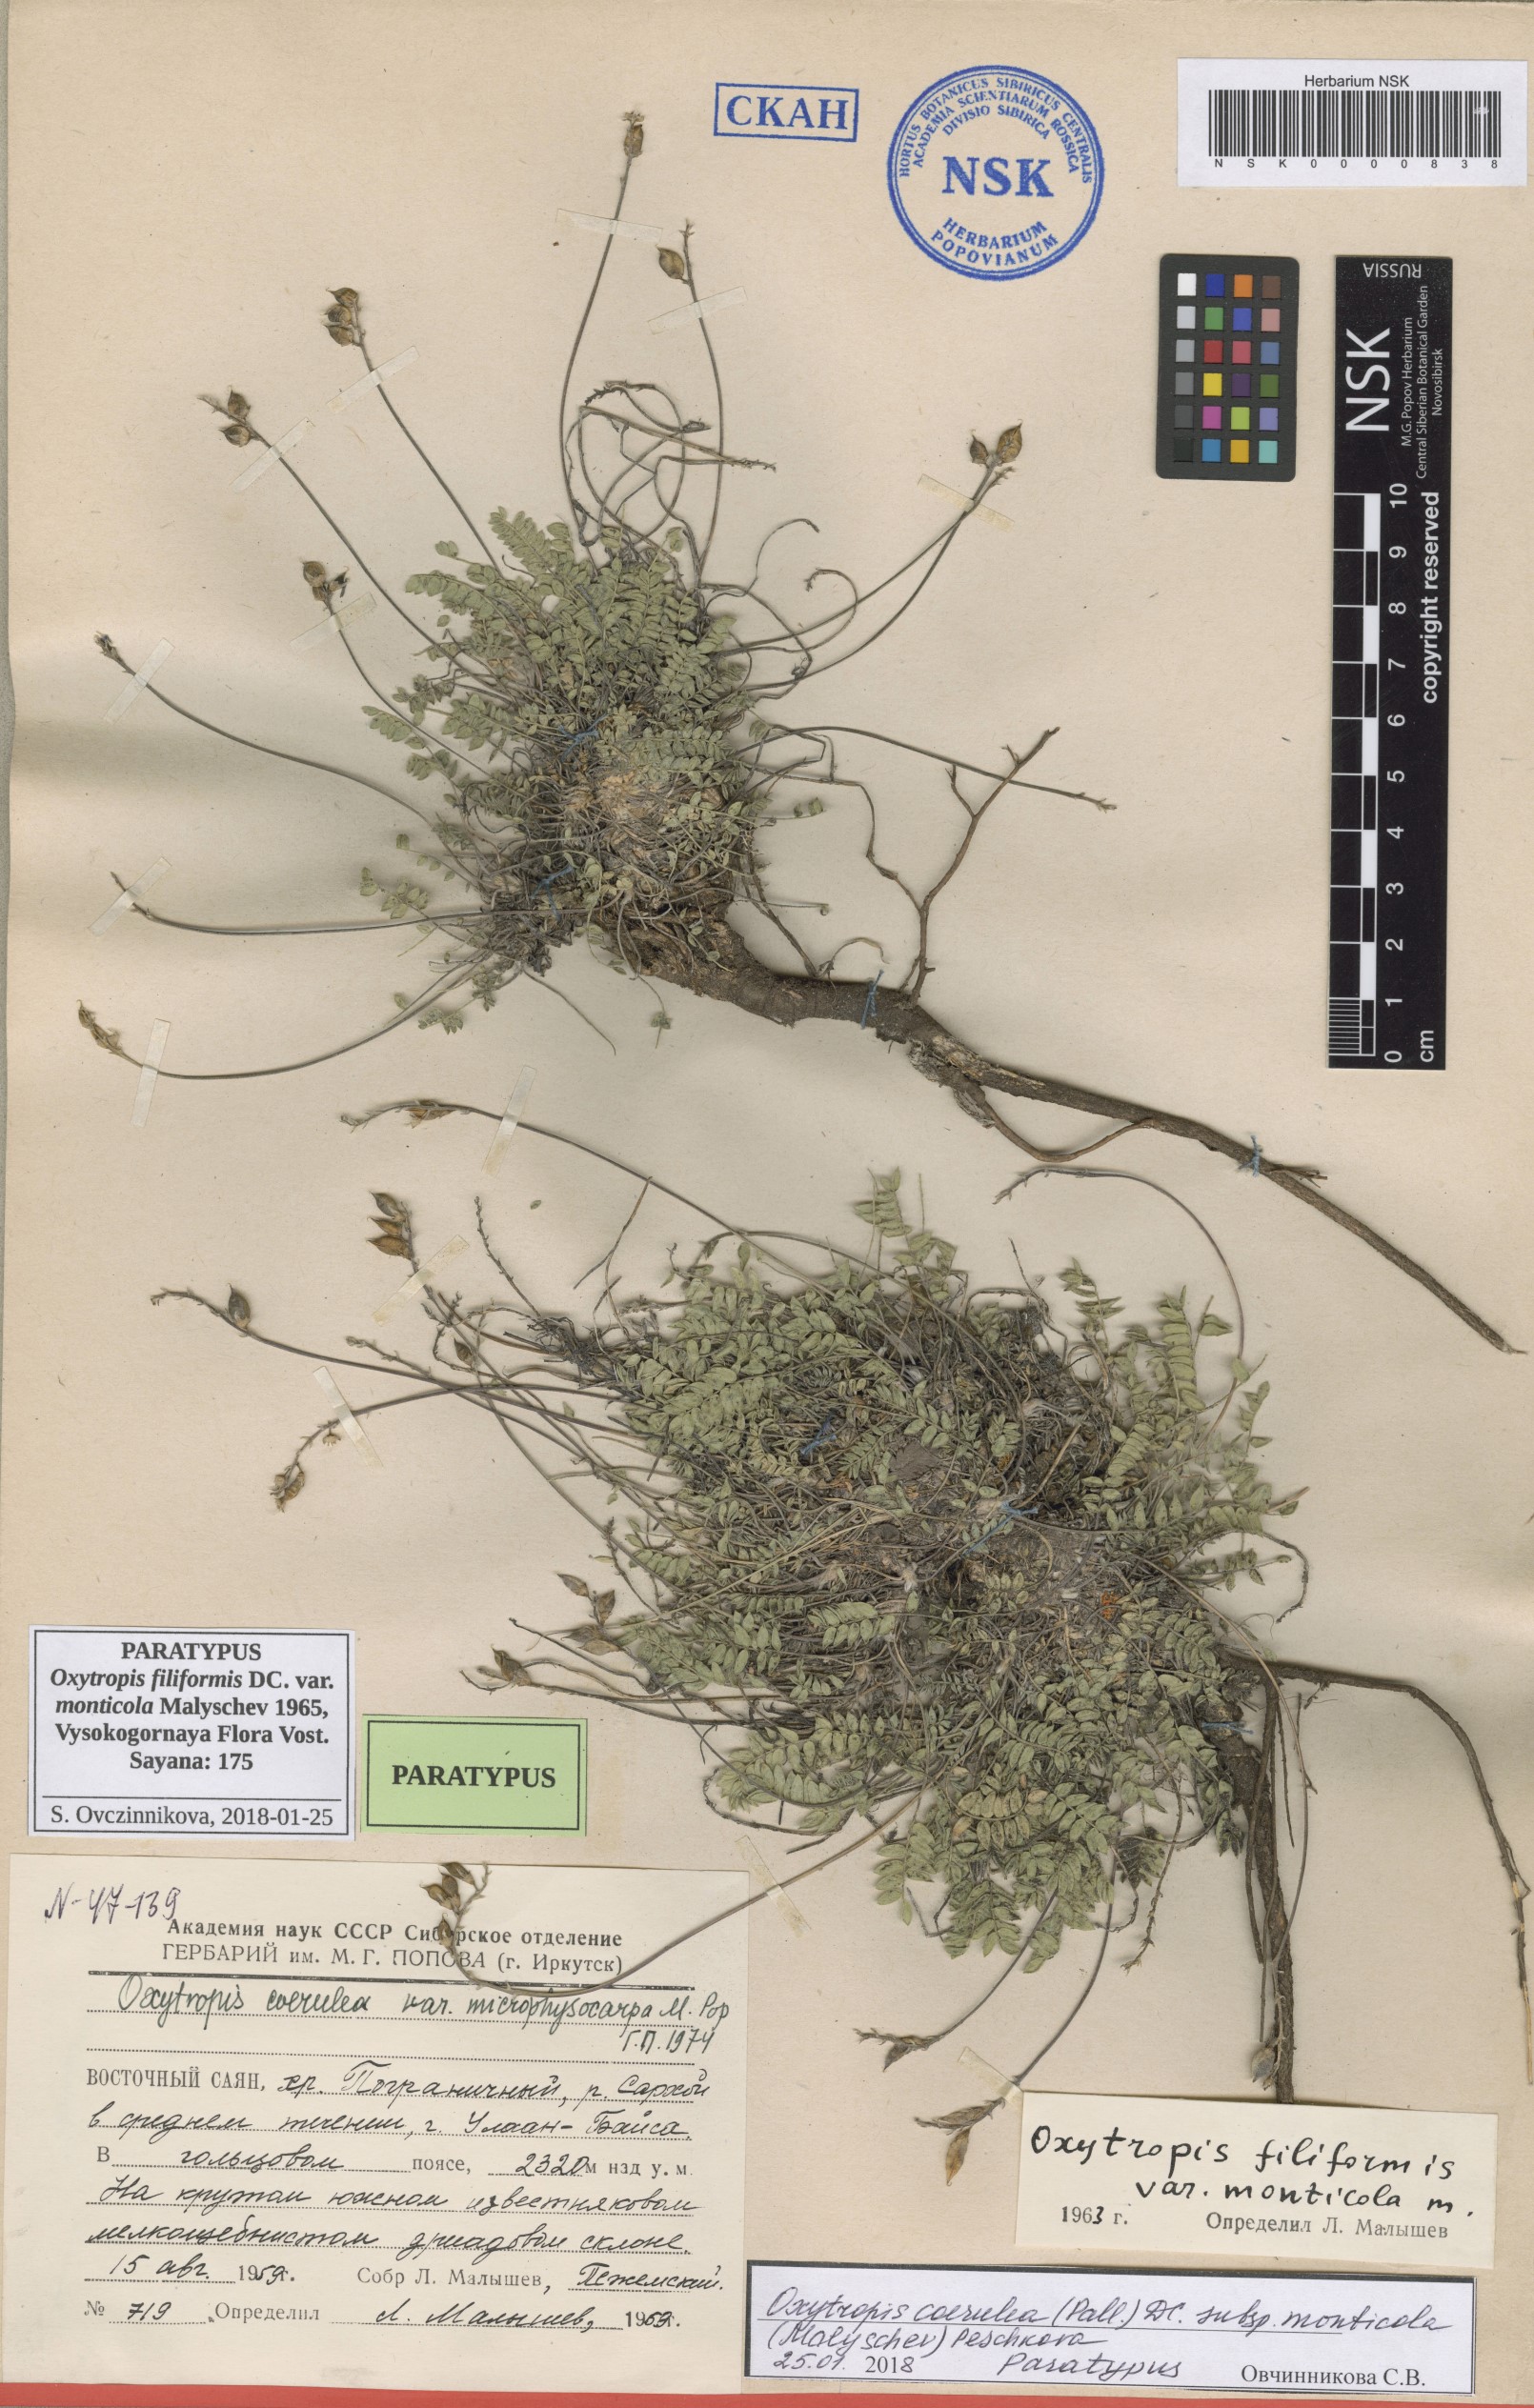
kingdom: Plantae
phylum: Tracheophyta
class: Magnoliopsida
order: Fabales
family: Fabaceae
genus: Oxytropis
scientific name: Oxytropis coerulea
